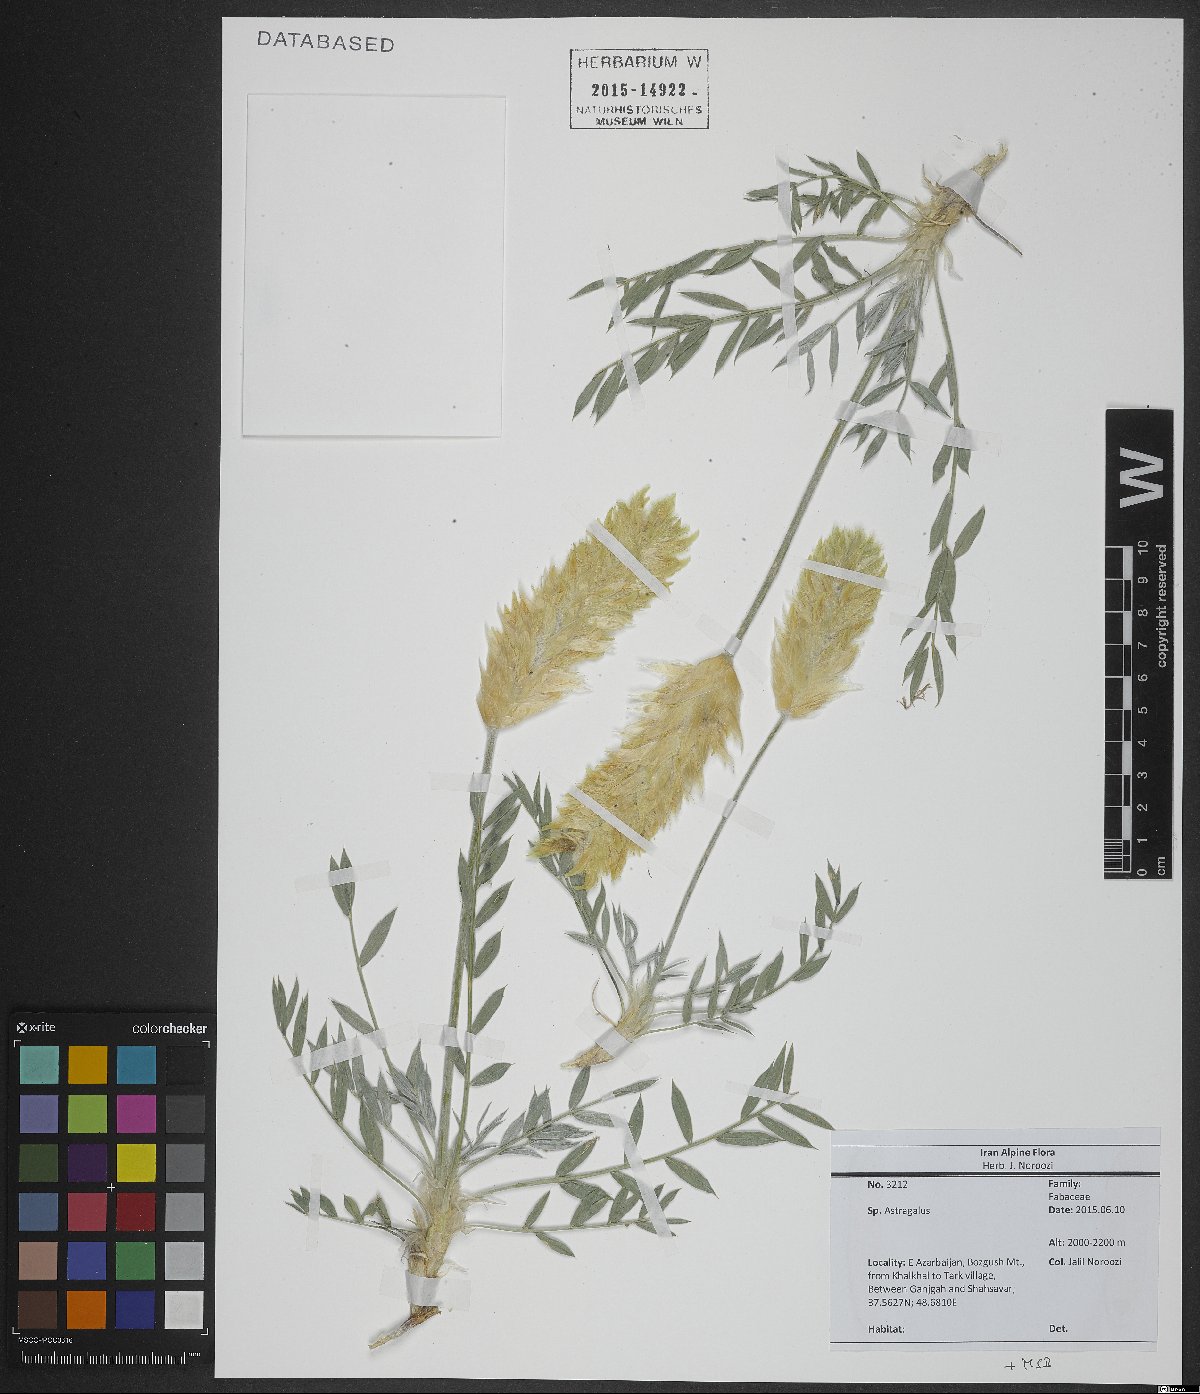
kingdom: Plantae
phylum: Tracheophyta
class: Magnoliopsida
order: Fabales
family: Fabaceae
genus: Astragalus
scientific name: Astragalus
